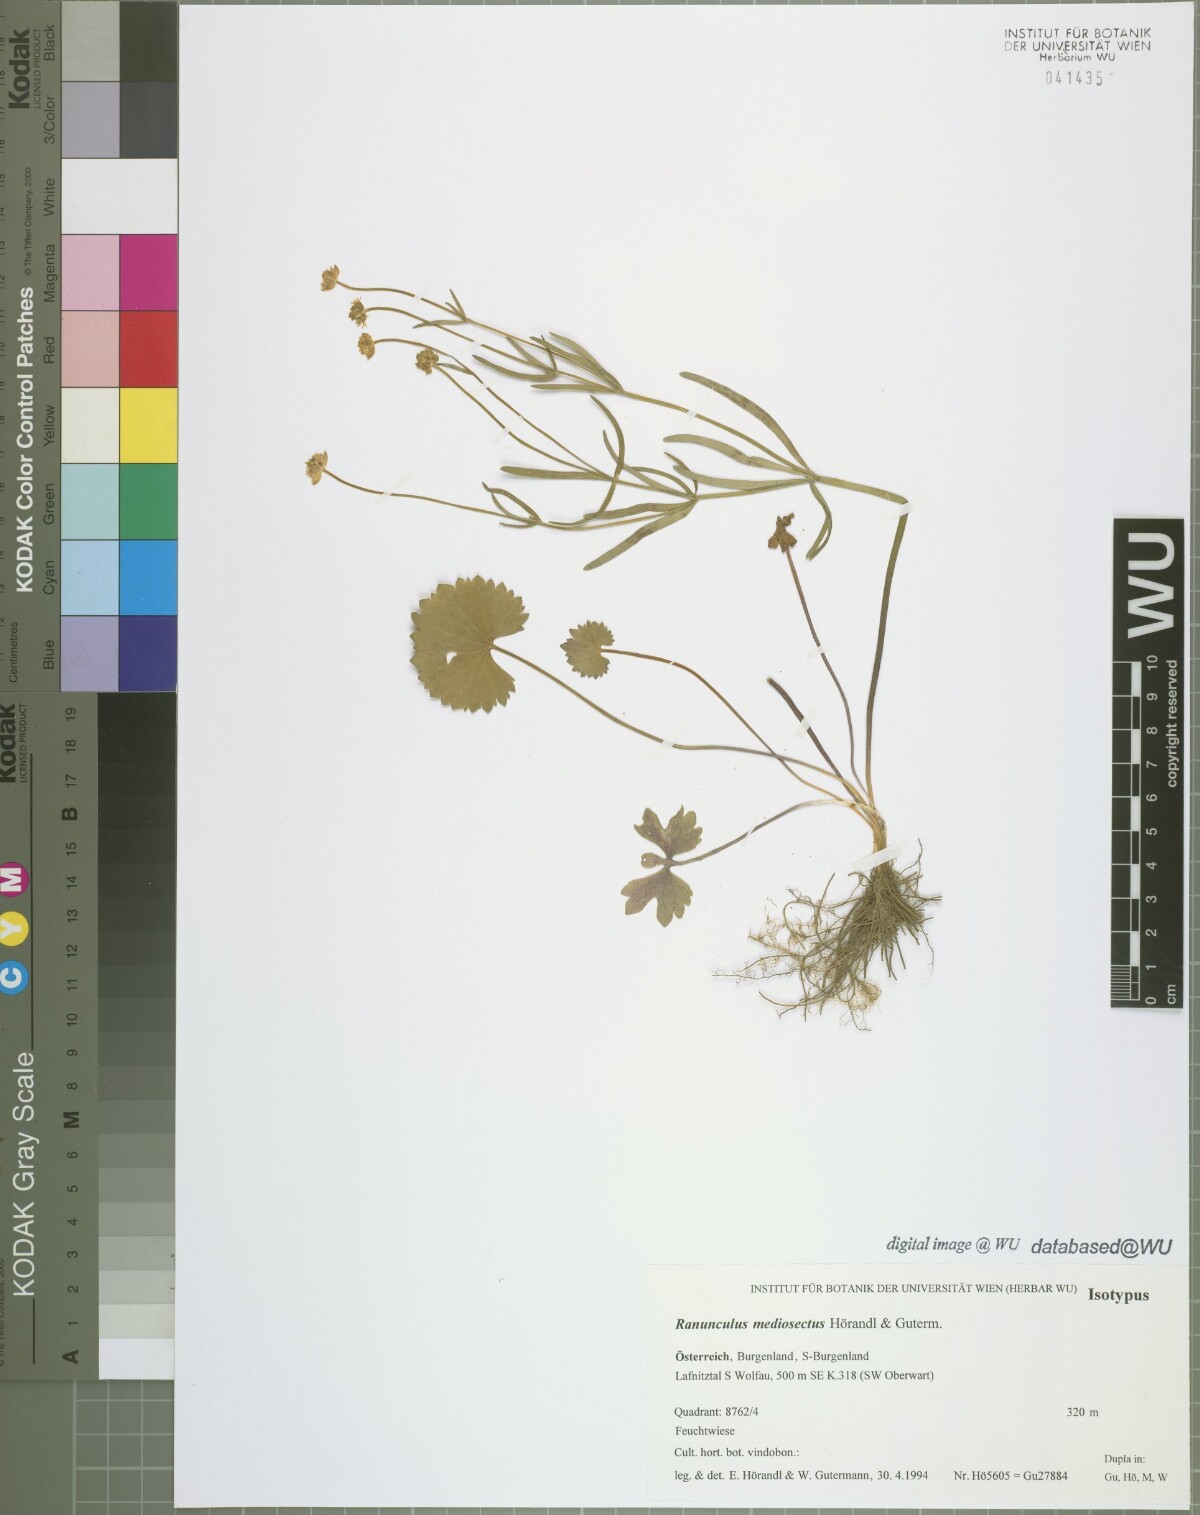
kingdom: Plantae
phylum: Tracheophyta
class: Magnoliopsida
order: Ranunculales
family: Ranunculaceae
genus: Ranunculus
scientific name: Ranunculus mediosectus
